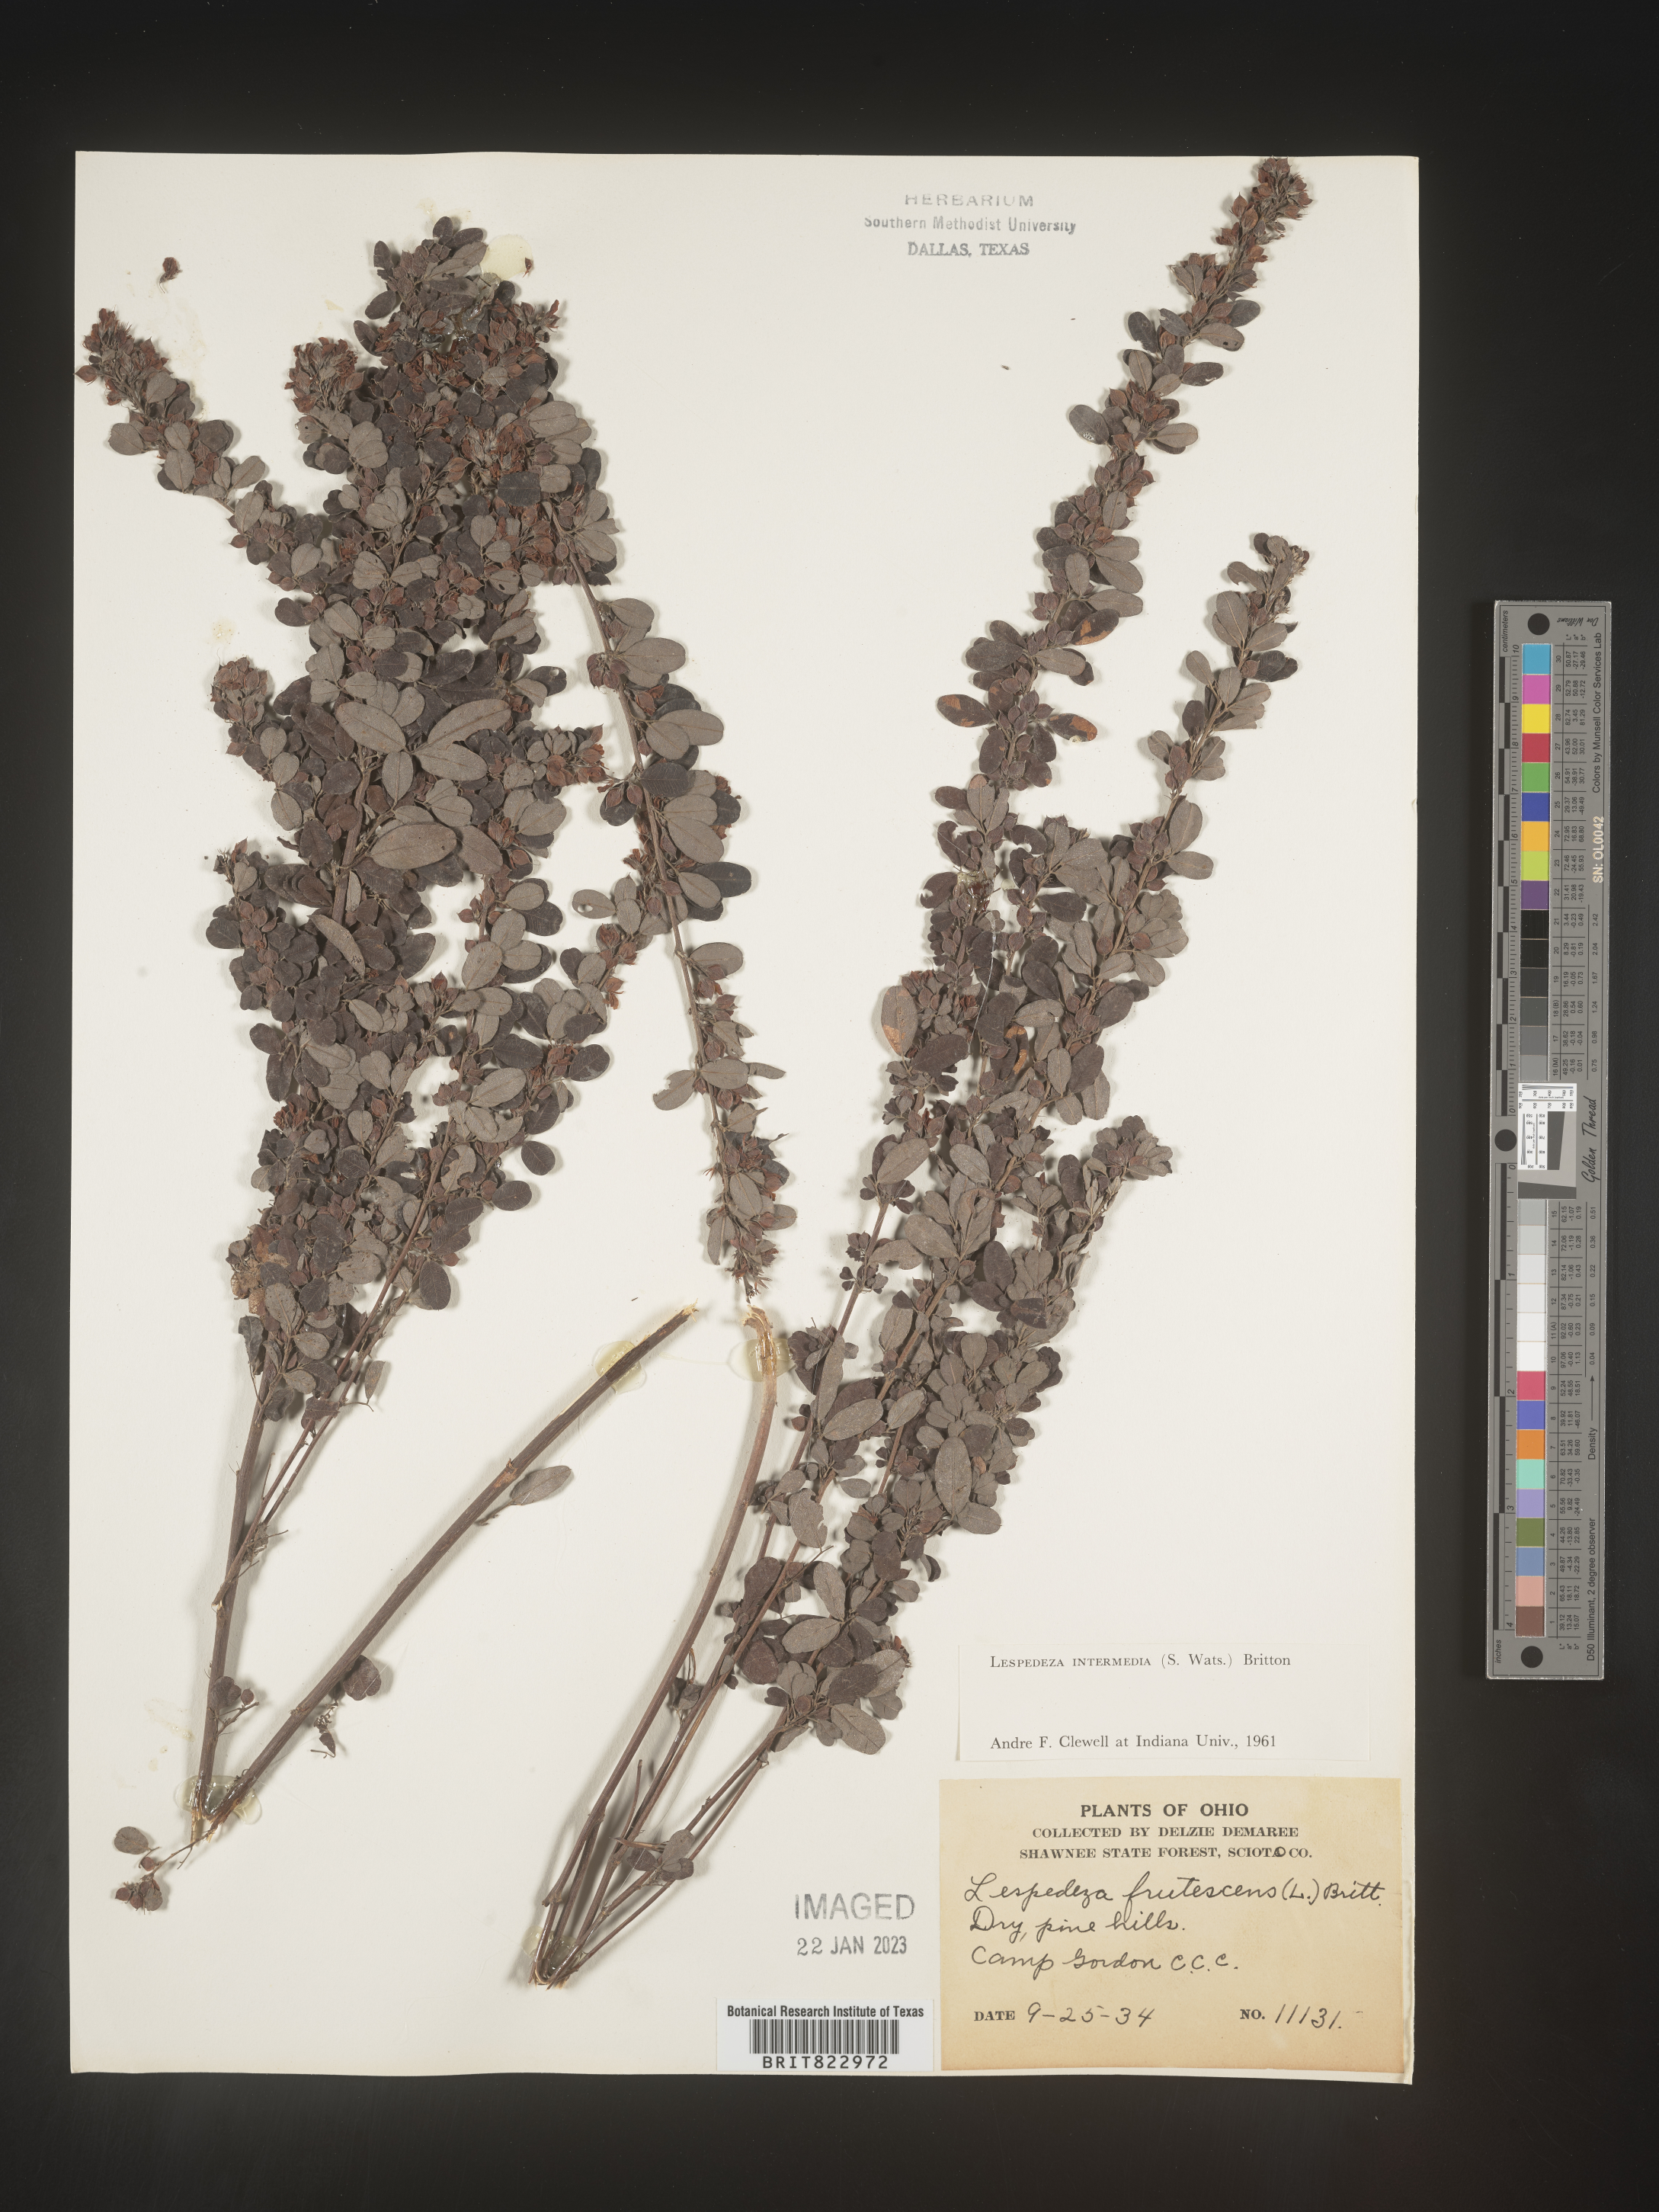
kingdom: Plantae
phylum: Tracheophyta
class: Magnoliopsida
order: Fabales
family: Fabaceae
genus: Lespedeza
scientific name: Lespedeza
